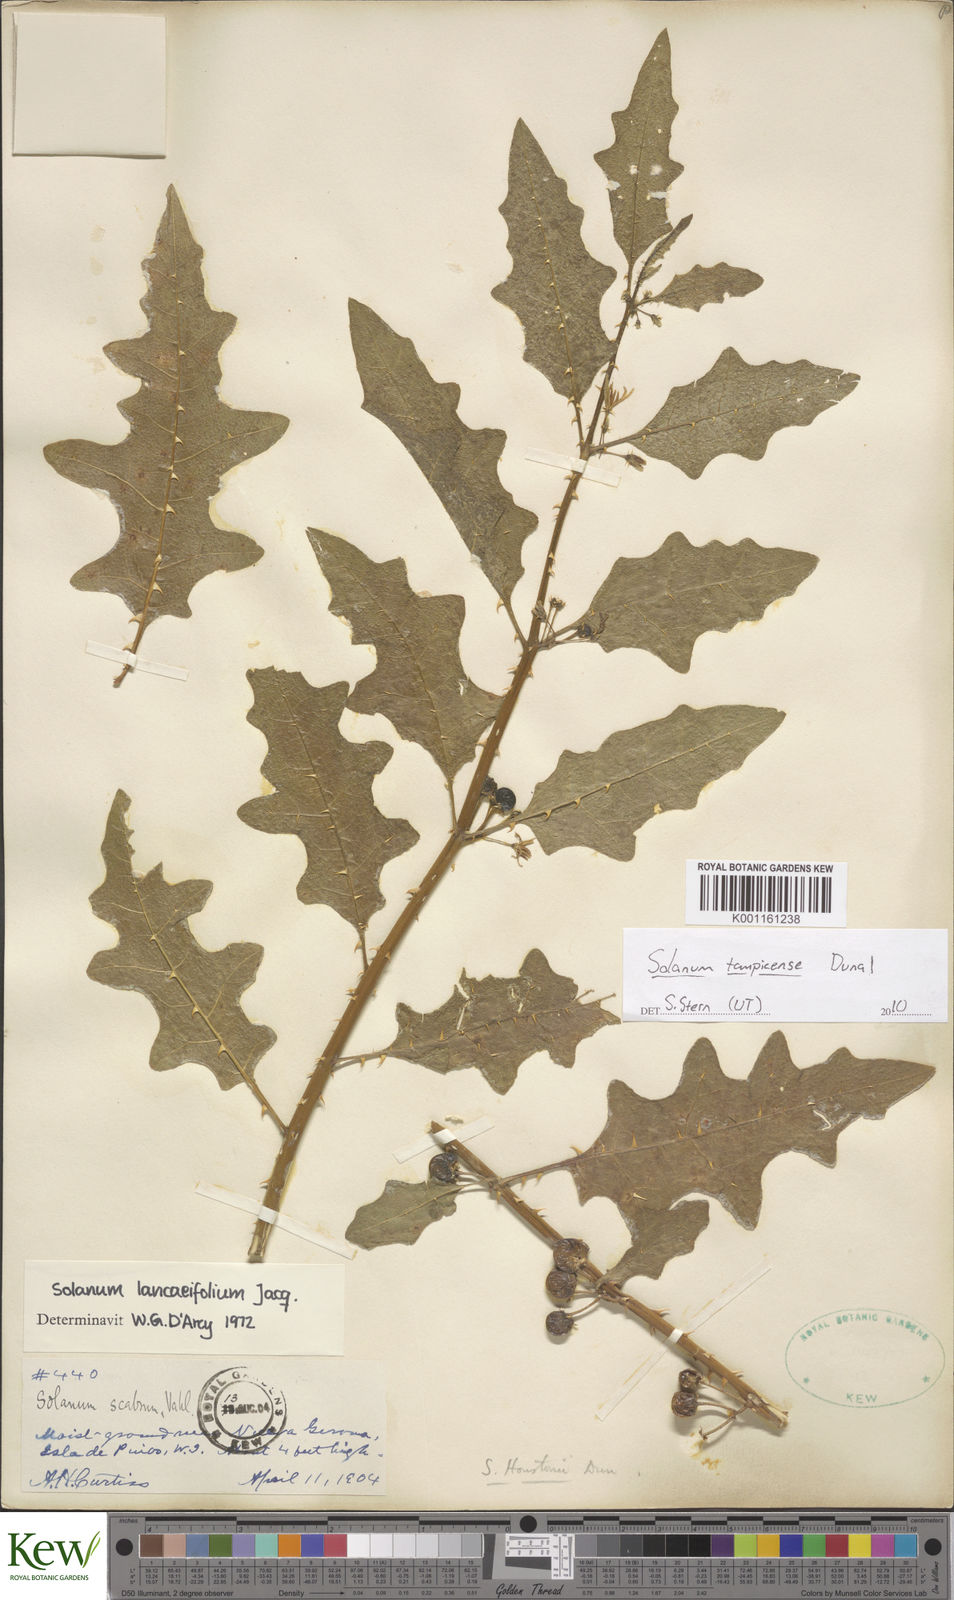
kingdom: Plantae
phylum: Tracheophyta
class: Magnoliopsida
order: Solanales
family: Solanaceae
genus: Solanum
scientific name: Solanum tampicense
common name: Scrambling nightshade
